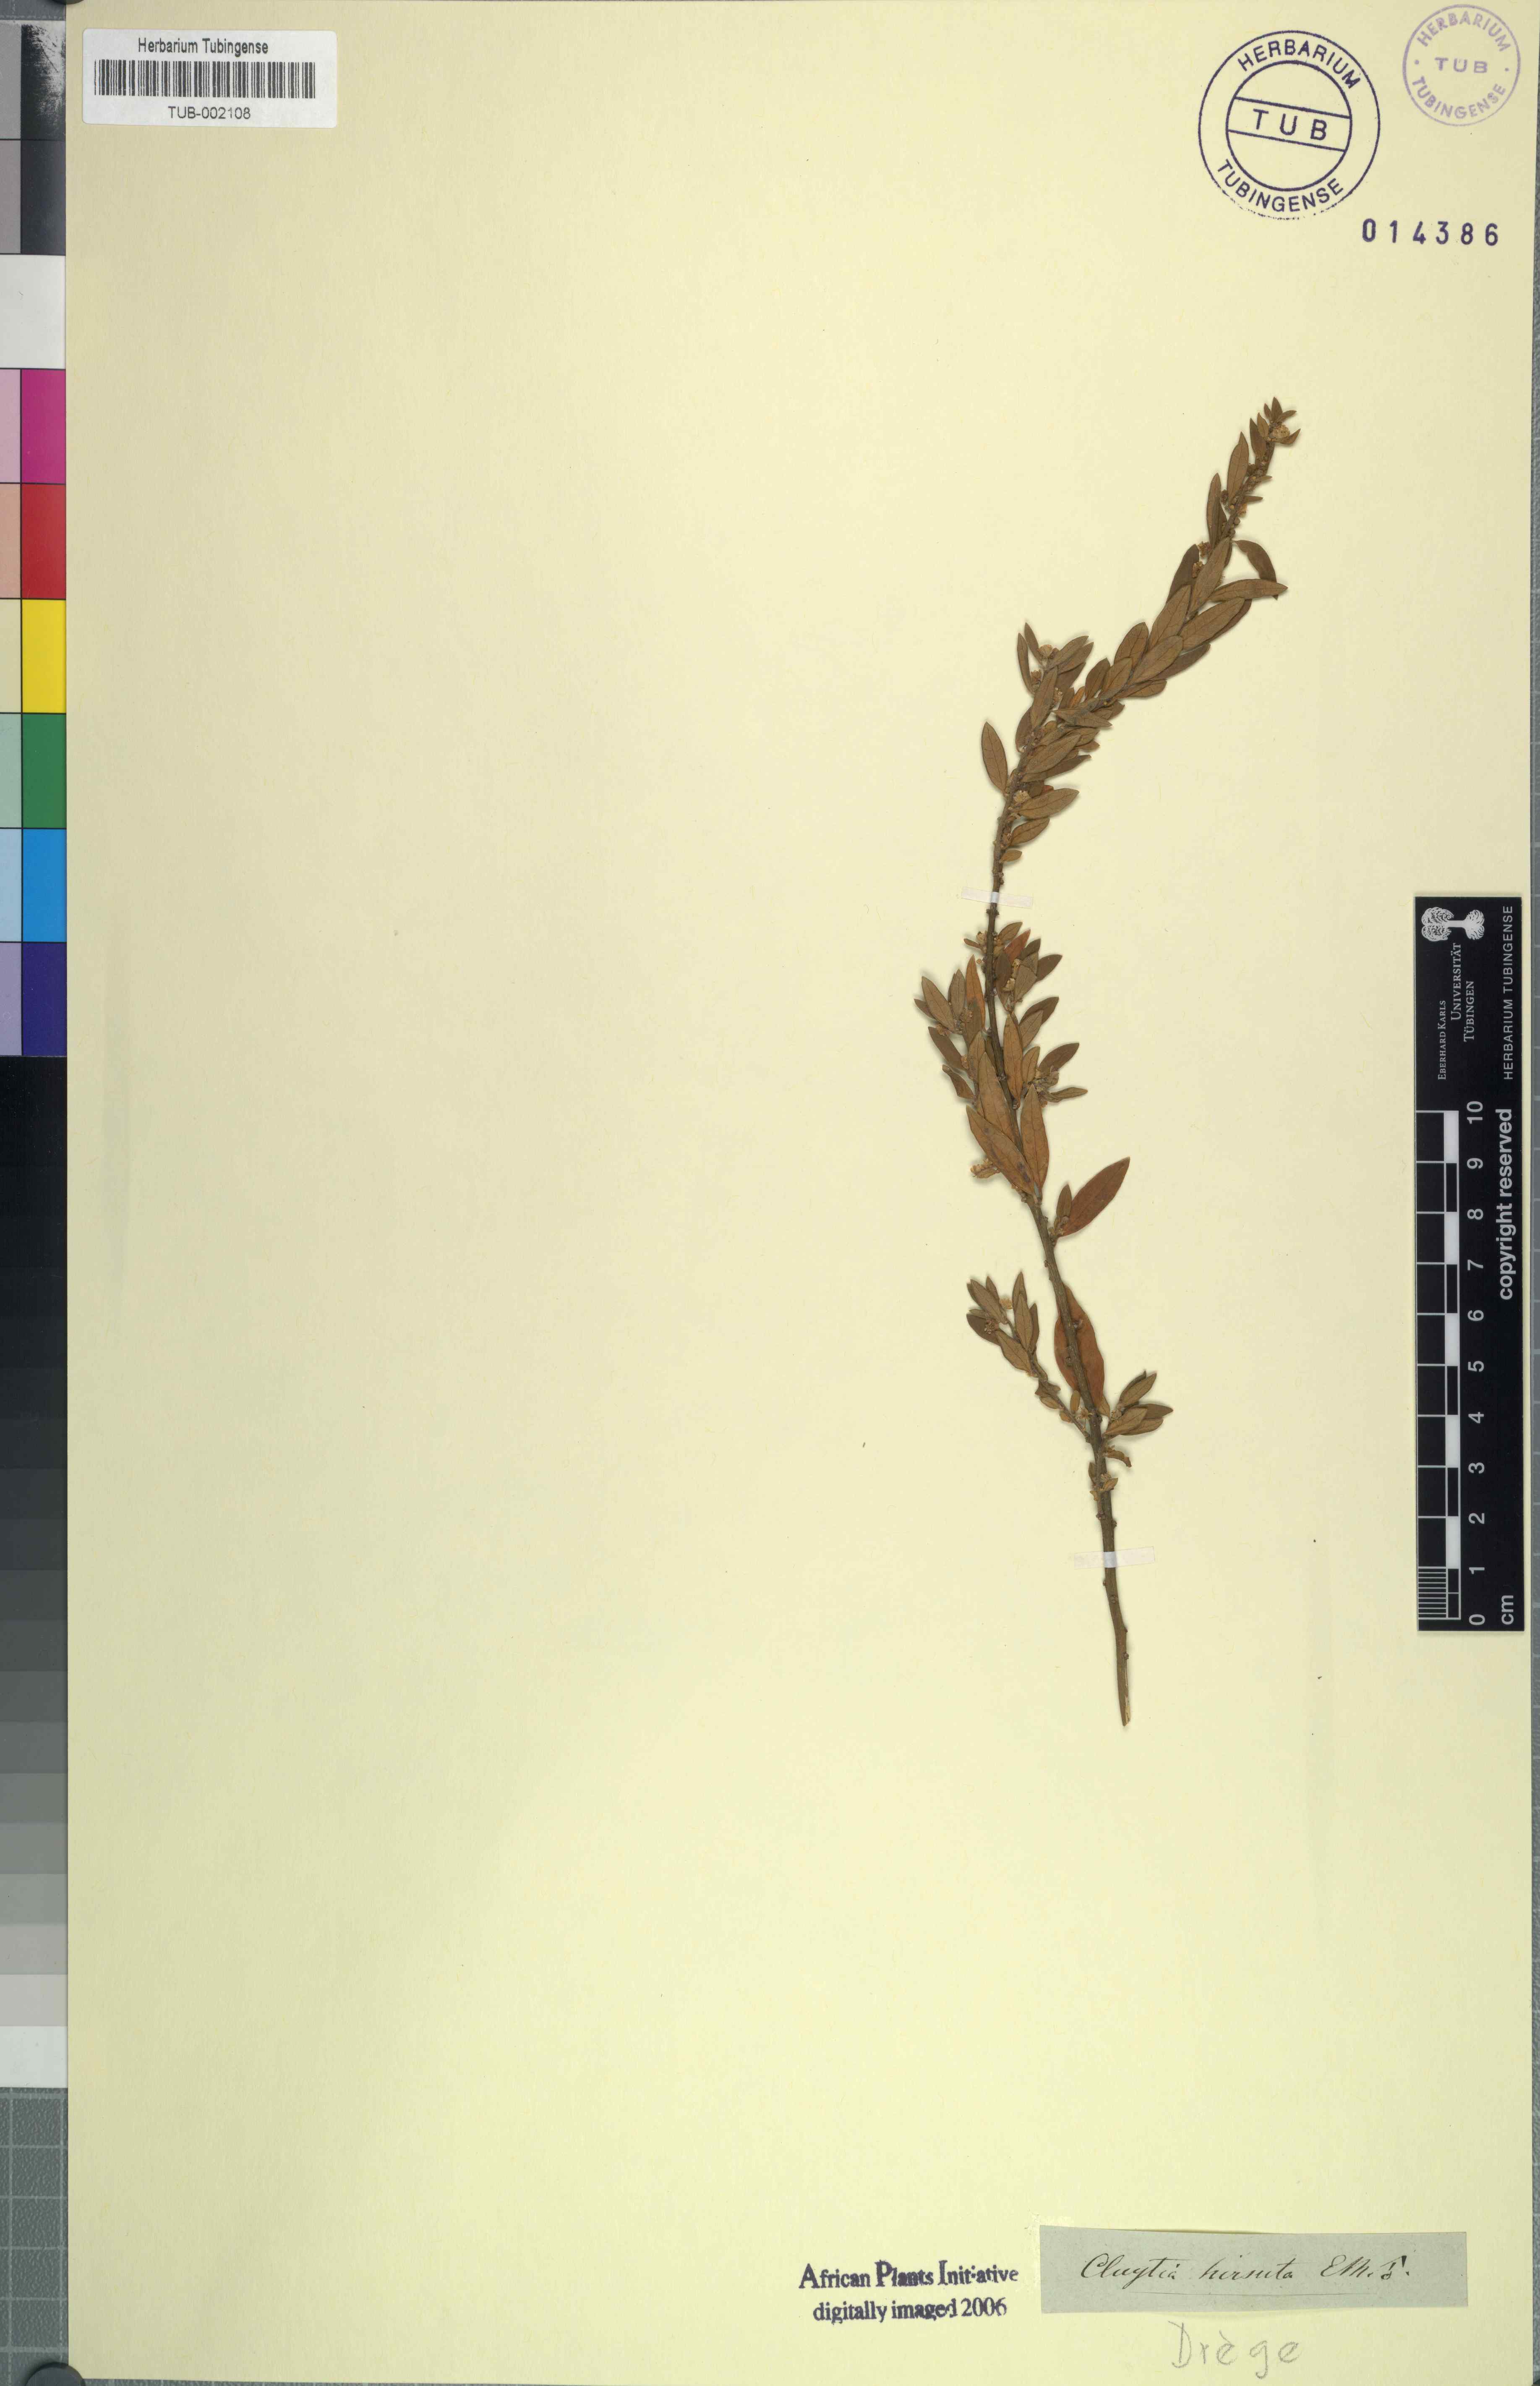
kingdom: Plantae
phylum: Tracheophyta
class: Magnoliopsida
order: Malpighiales
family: Peraceae
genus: Clutia
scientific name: Clutia hirsuta
